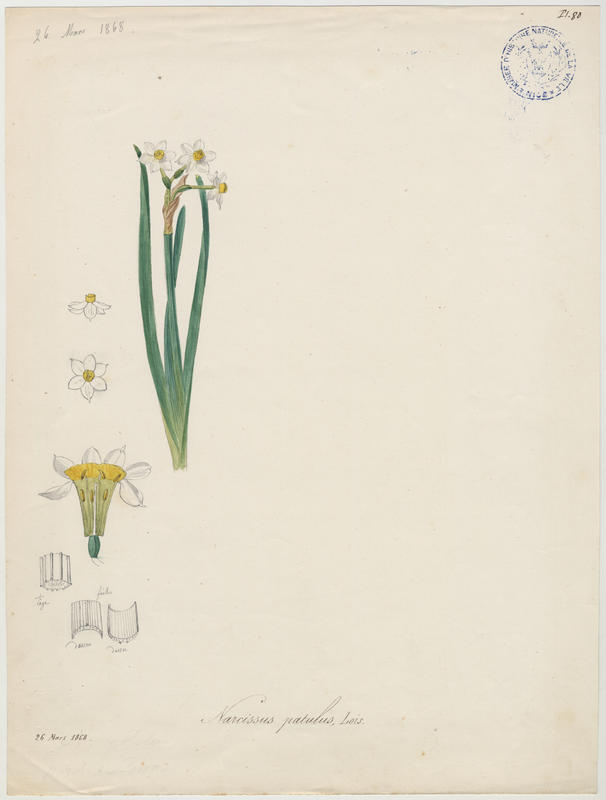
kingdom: Plantae
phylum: Tracheophyta
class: Liliopsida
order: Asparagales
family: Amaryllidaceae
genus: Narcissus
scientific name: Narcissus tazetta
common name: Bunch-flowered daffodil
